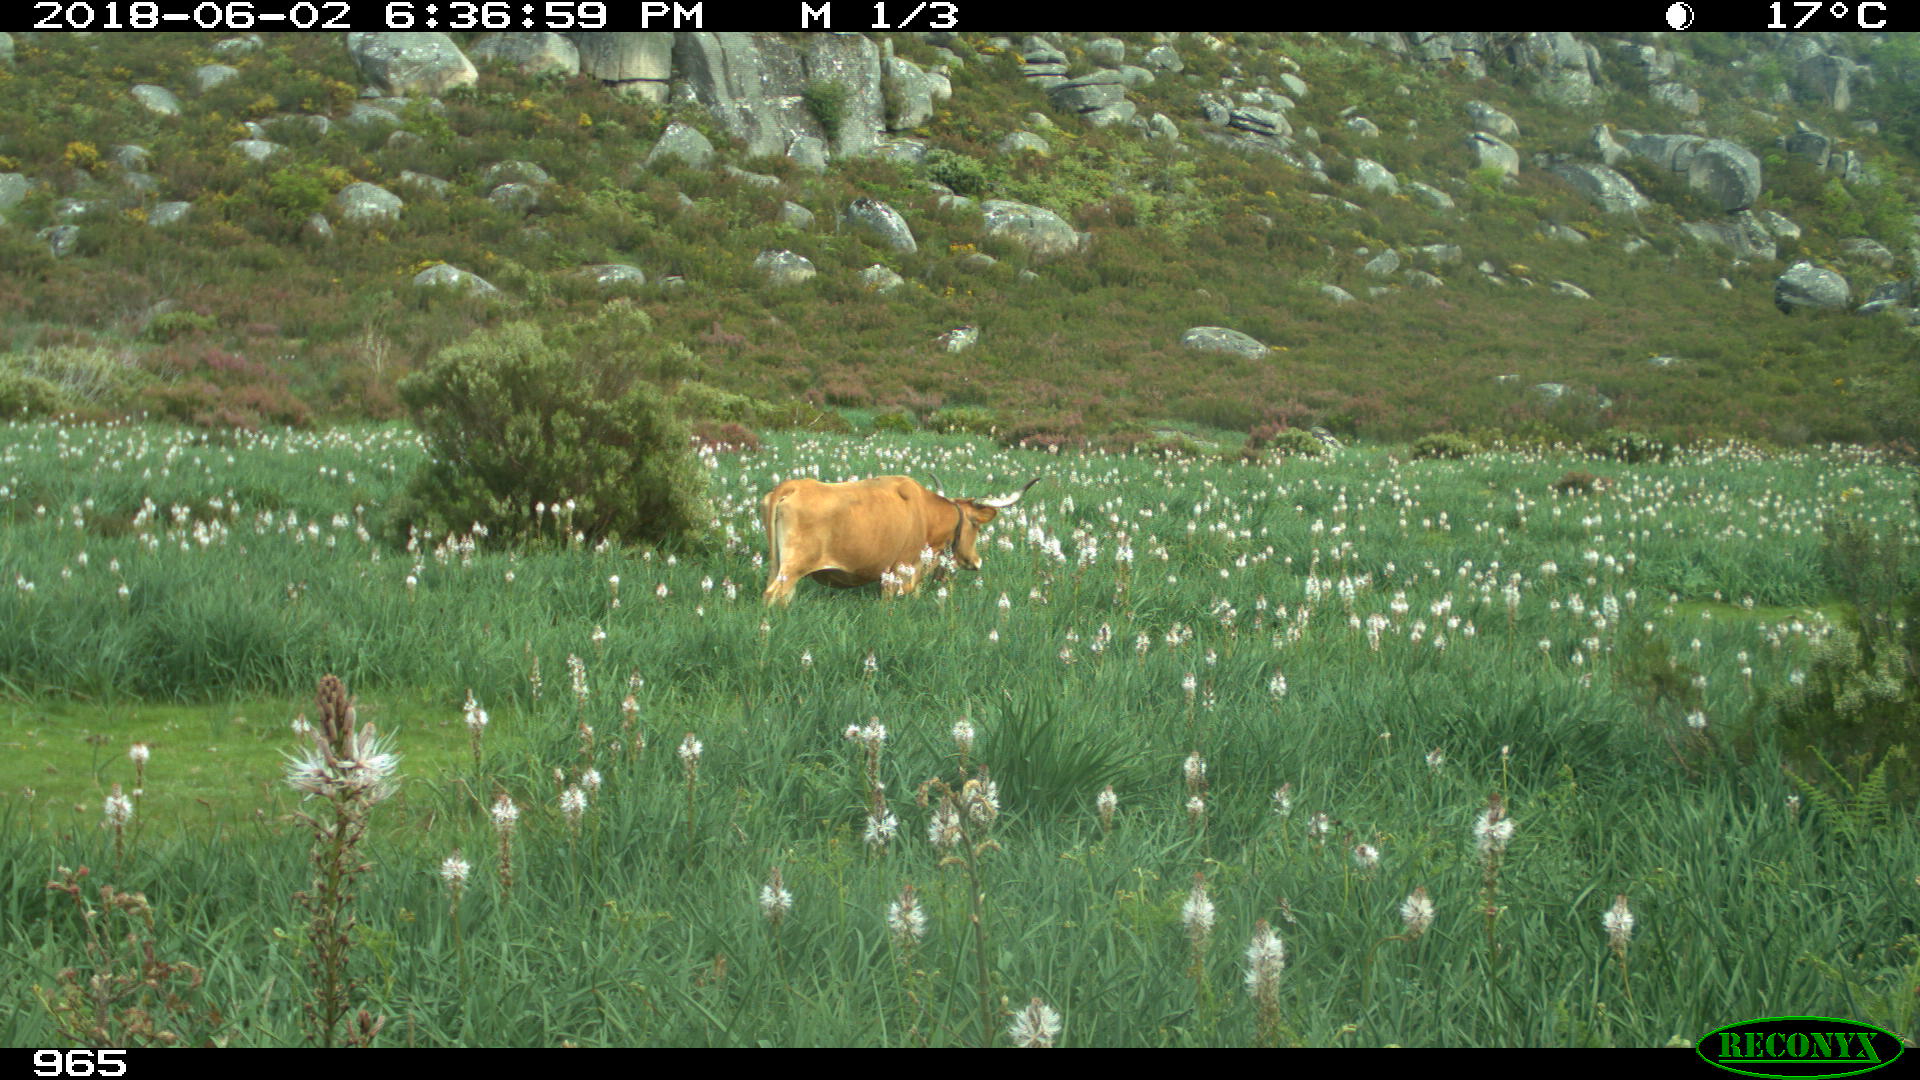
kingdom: Animalia
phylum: Chordata
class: Mammalia
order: Artiodactyla
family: Bovidae
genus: Bos
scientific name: Bos taurus
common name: Domesticated cattle
